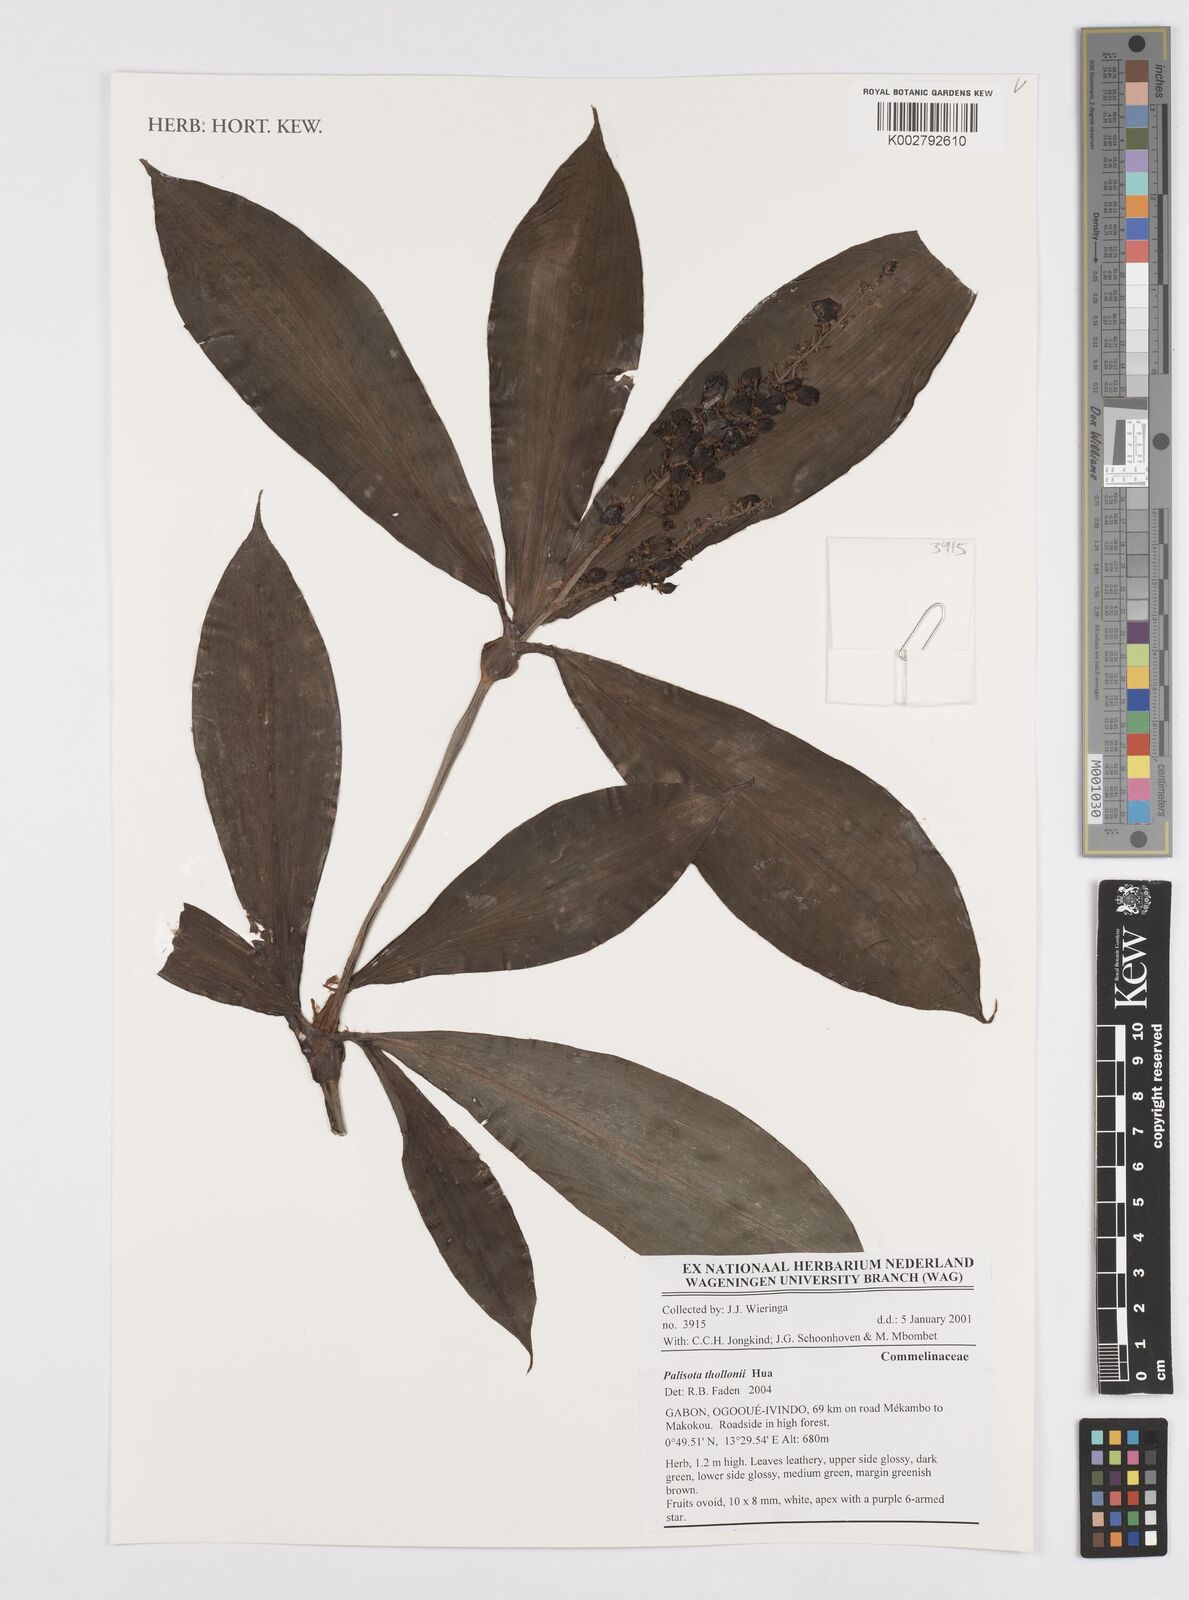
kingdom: Plantae
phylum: Tracheophyta
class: Liliopsida
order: Commelinales
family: Commelinaceae
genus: Palisota
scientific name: Palisota thollonii
